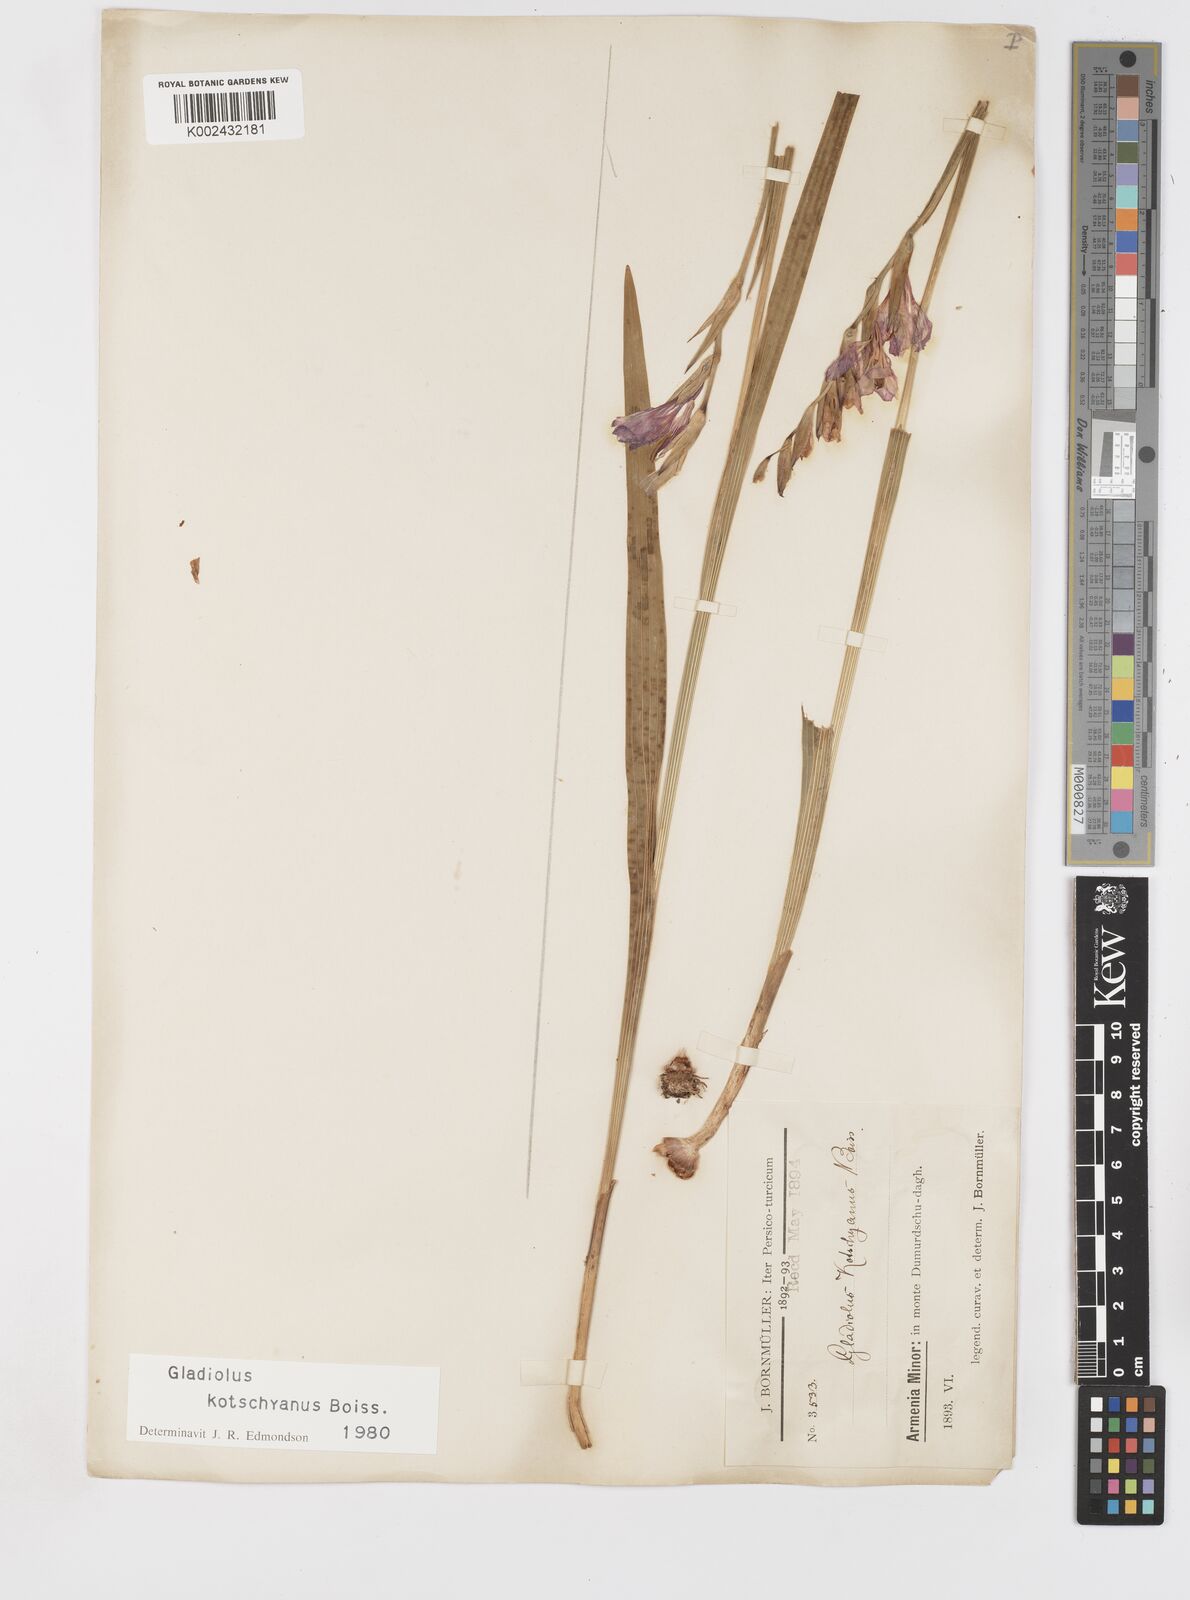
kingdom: Plantae
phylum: Tracheophyta
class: Liliopsida
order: Asparagales
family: Iridaceae
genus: Gladiolus
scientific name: Gladiolus imbricatus
